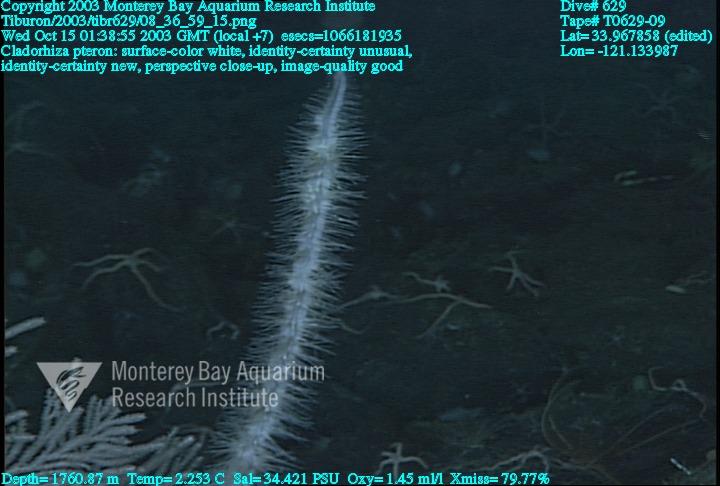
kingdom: Animalia
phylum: Porifera
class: Demospongiae
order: Poecilosclerida
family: Cladorhizidae
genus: Nullarbora
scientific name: Nullarbora pteron
